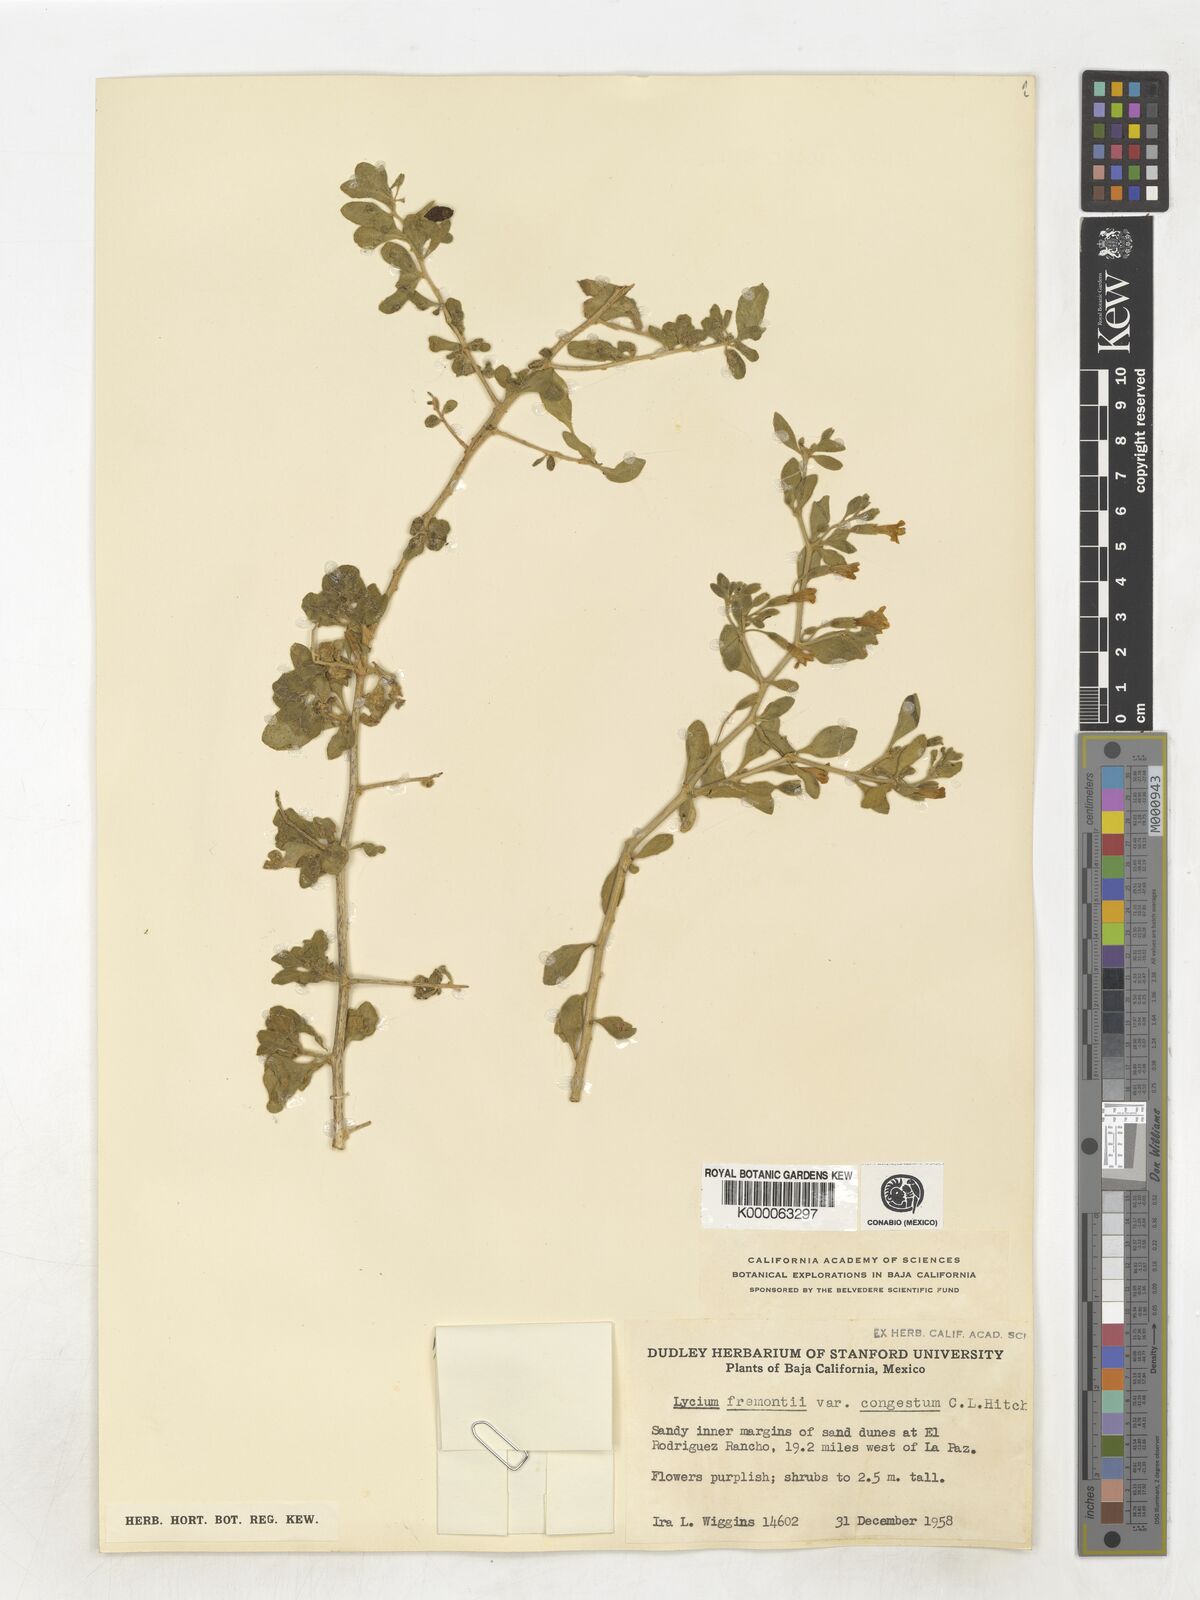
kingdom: Plantae
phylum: Tracheophyta
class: Magnoliopsida
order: Solanales
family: Solanaceae
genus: Lycium
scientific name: Lycium fremontii
